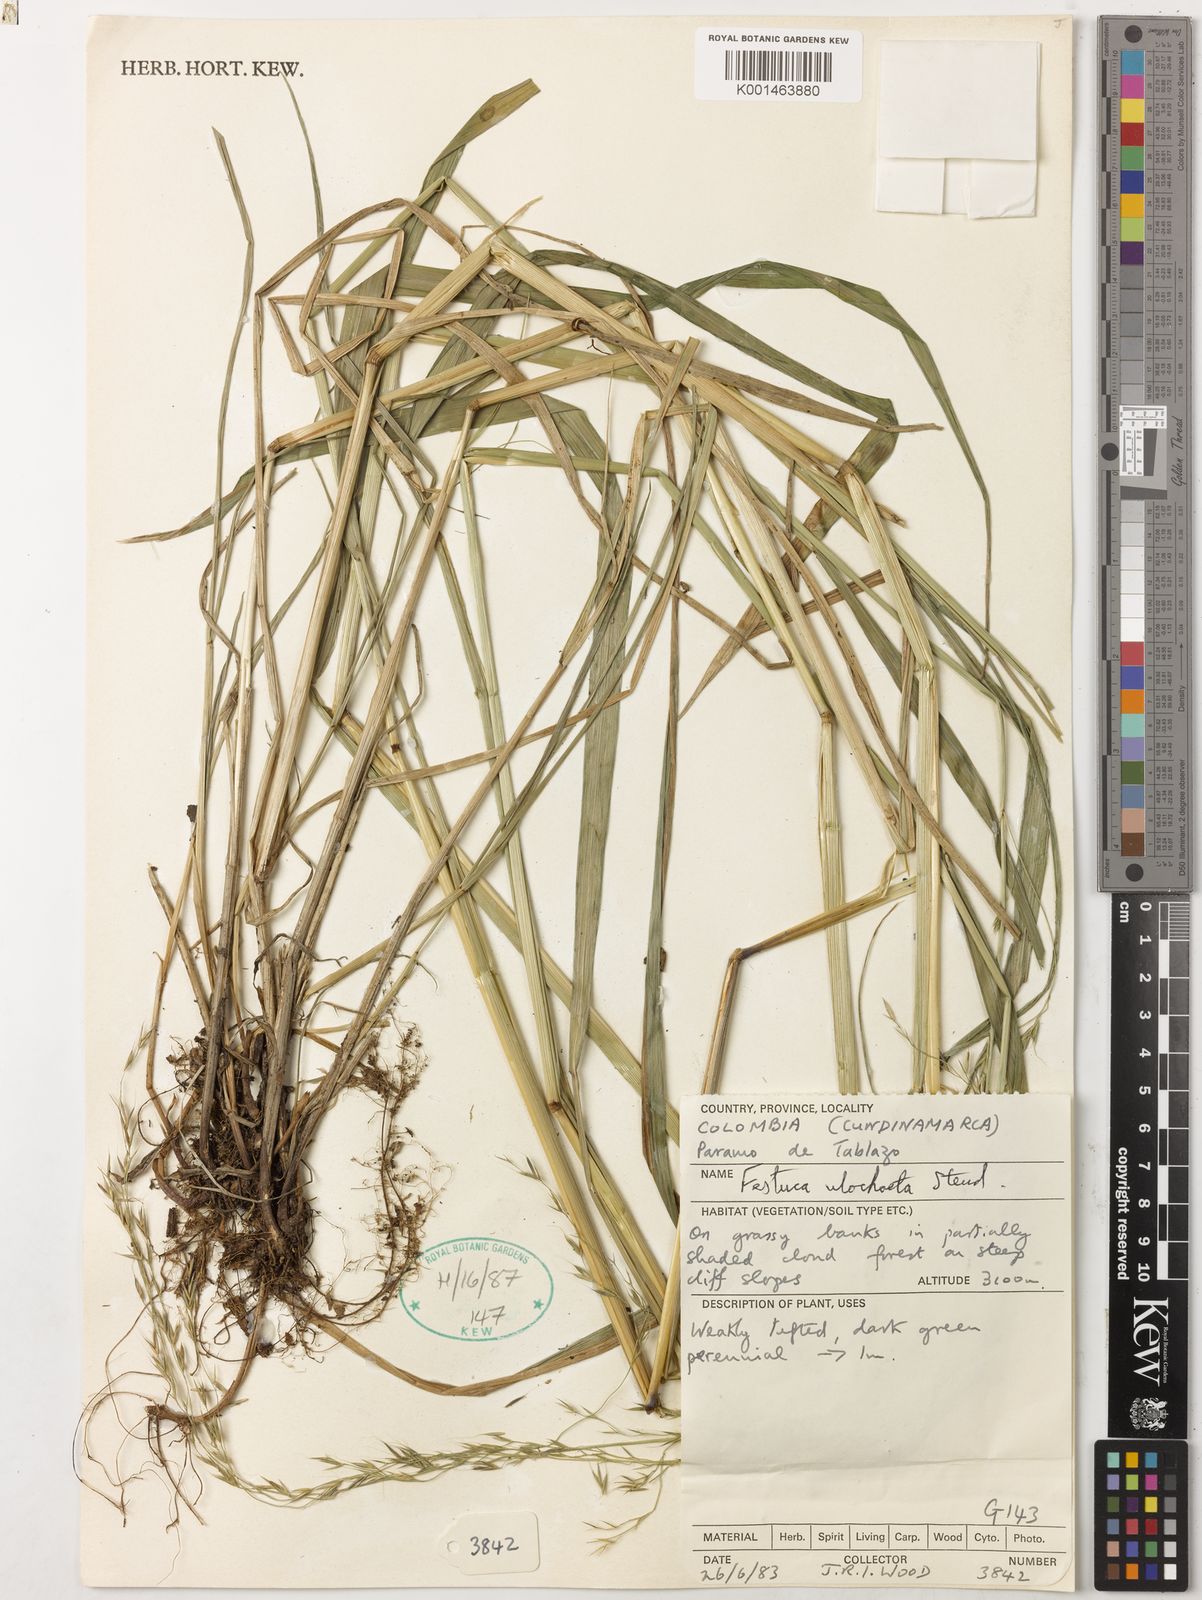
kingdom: Plantae
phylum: Tracheophyta
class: Liliopsida
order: Poales
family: Poaceae
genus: Festuca
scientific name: Festuca ulochaeta
